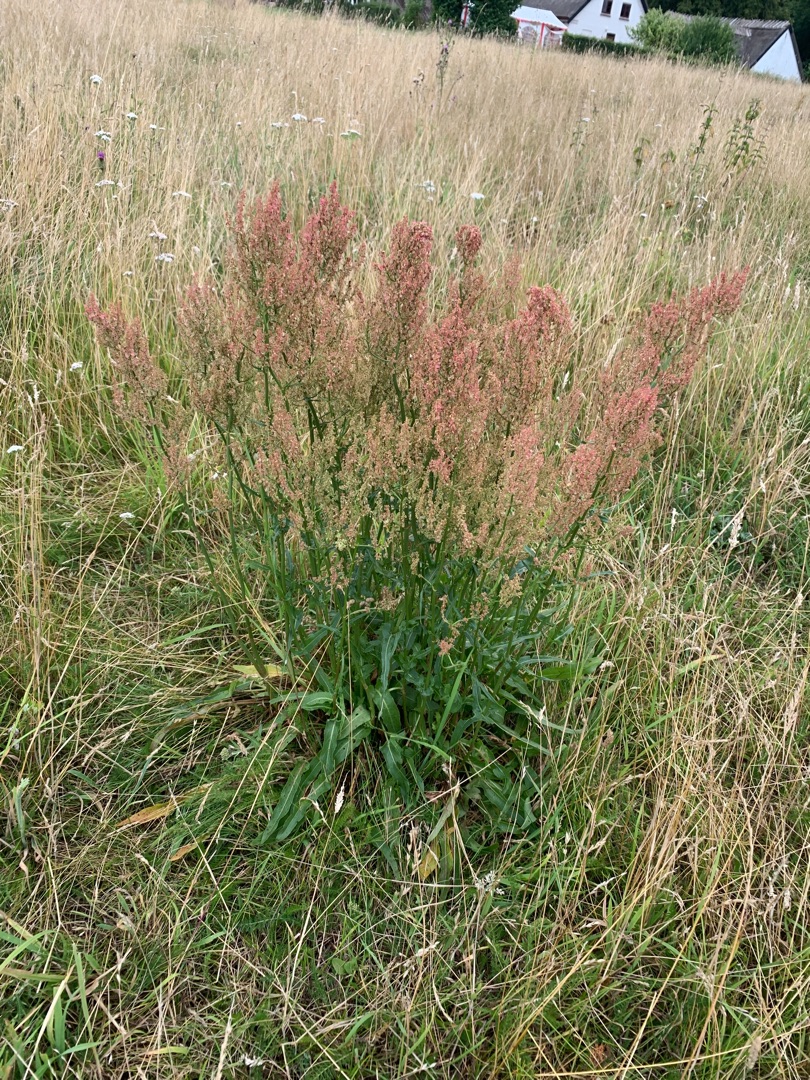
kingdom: Plantae
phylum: Tracheophyta
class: Magnoliopsida
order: Caryophyllales
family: Polygonaceae
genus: Rumex
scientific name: Rumex thyrsiflorus
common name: Dusk-syre
